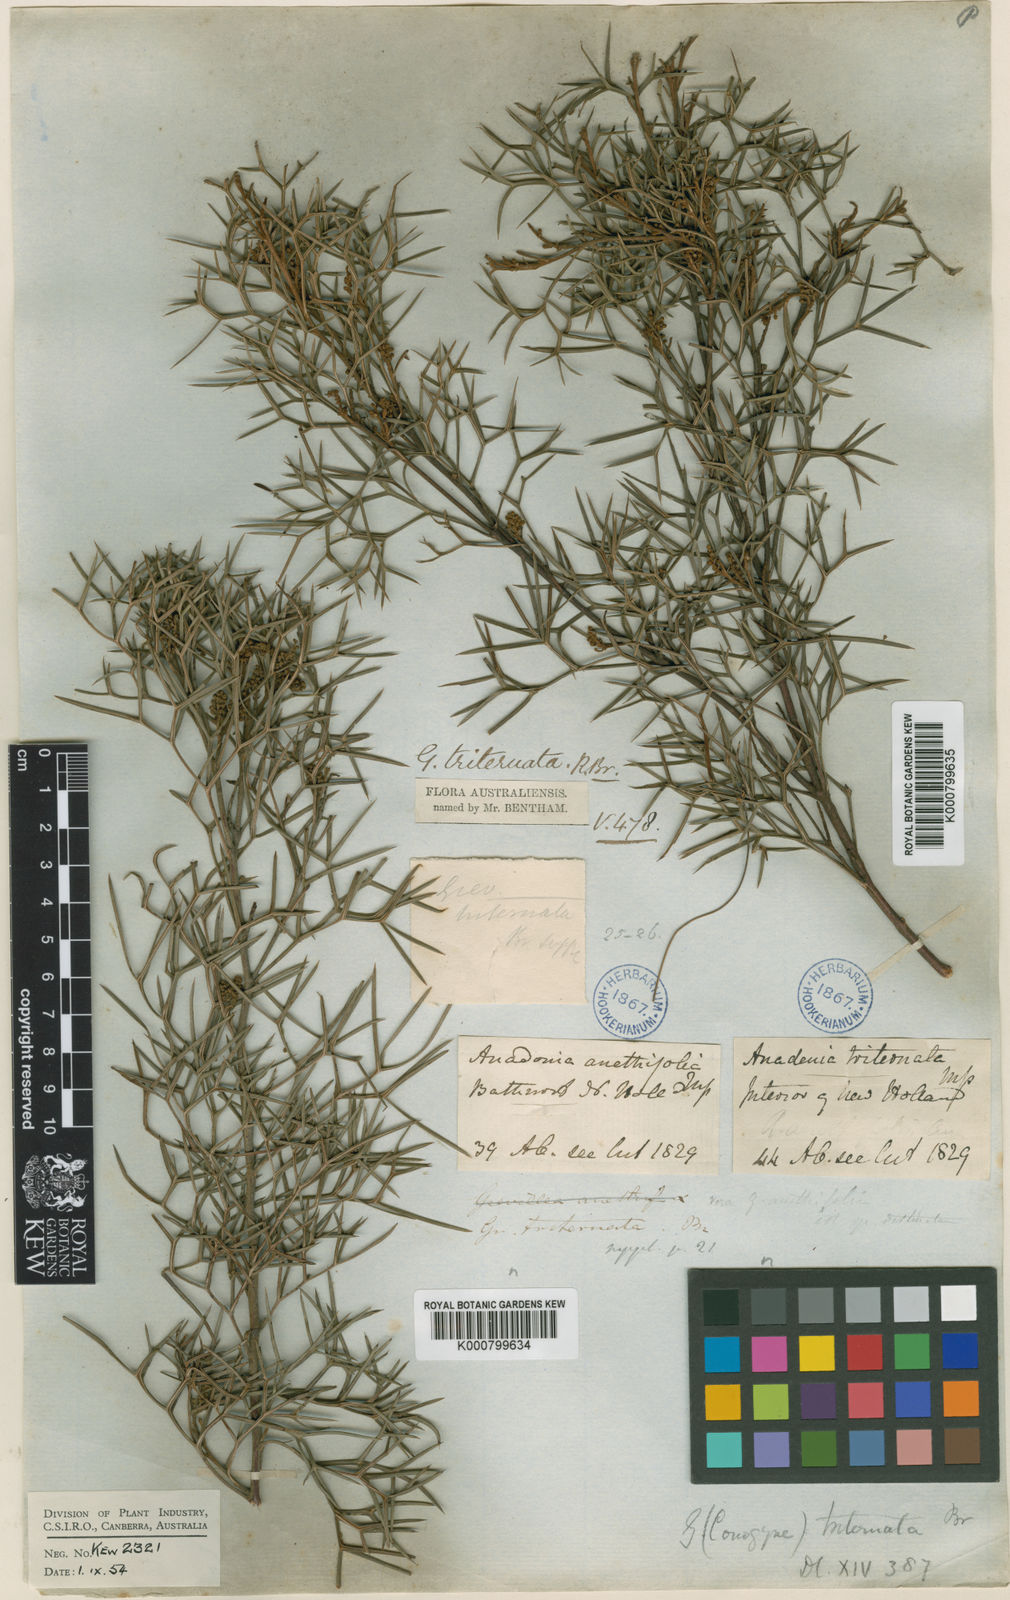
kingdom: Plantae
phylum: Tracheophyta
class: Magnoliopsida
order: Proteales
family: Proteaceae
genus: Grevillea
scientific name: Grevillea triternata
